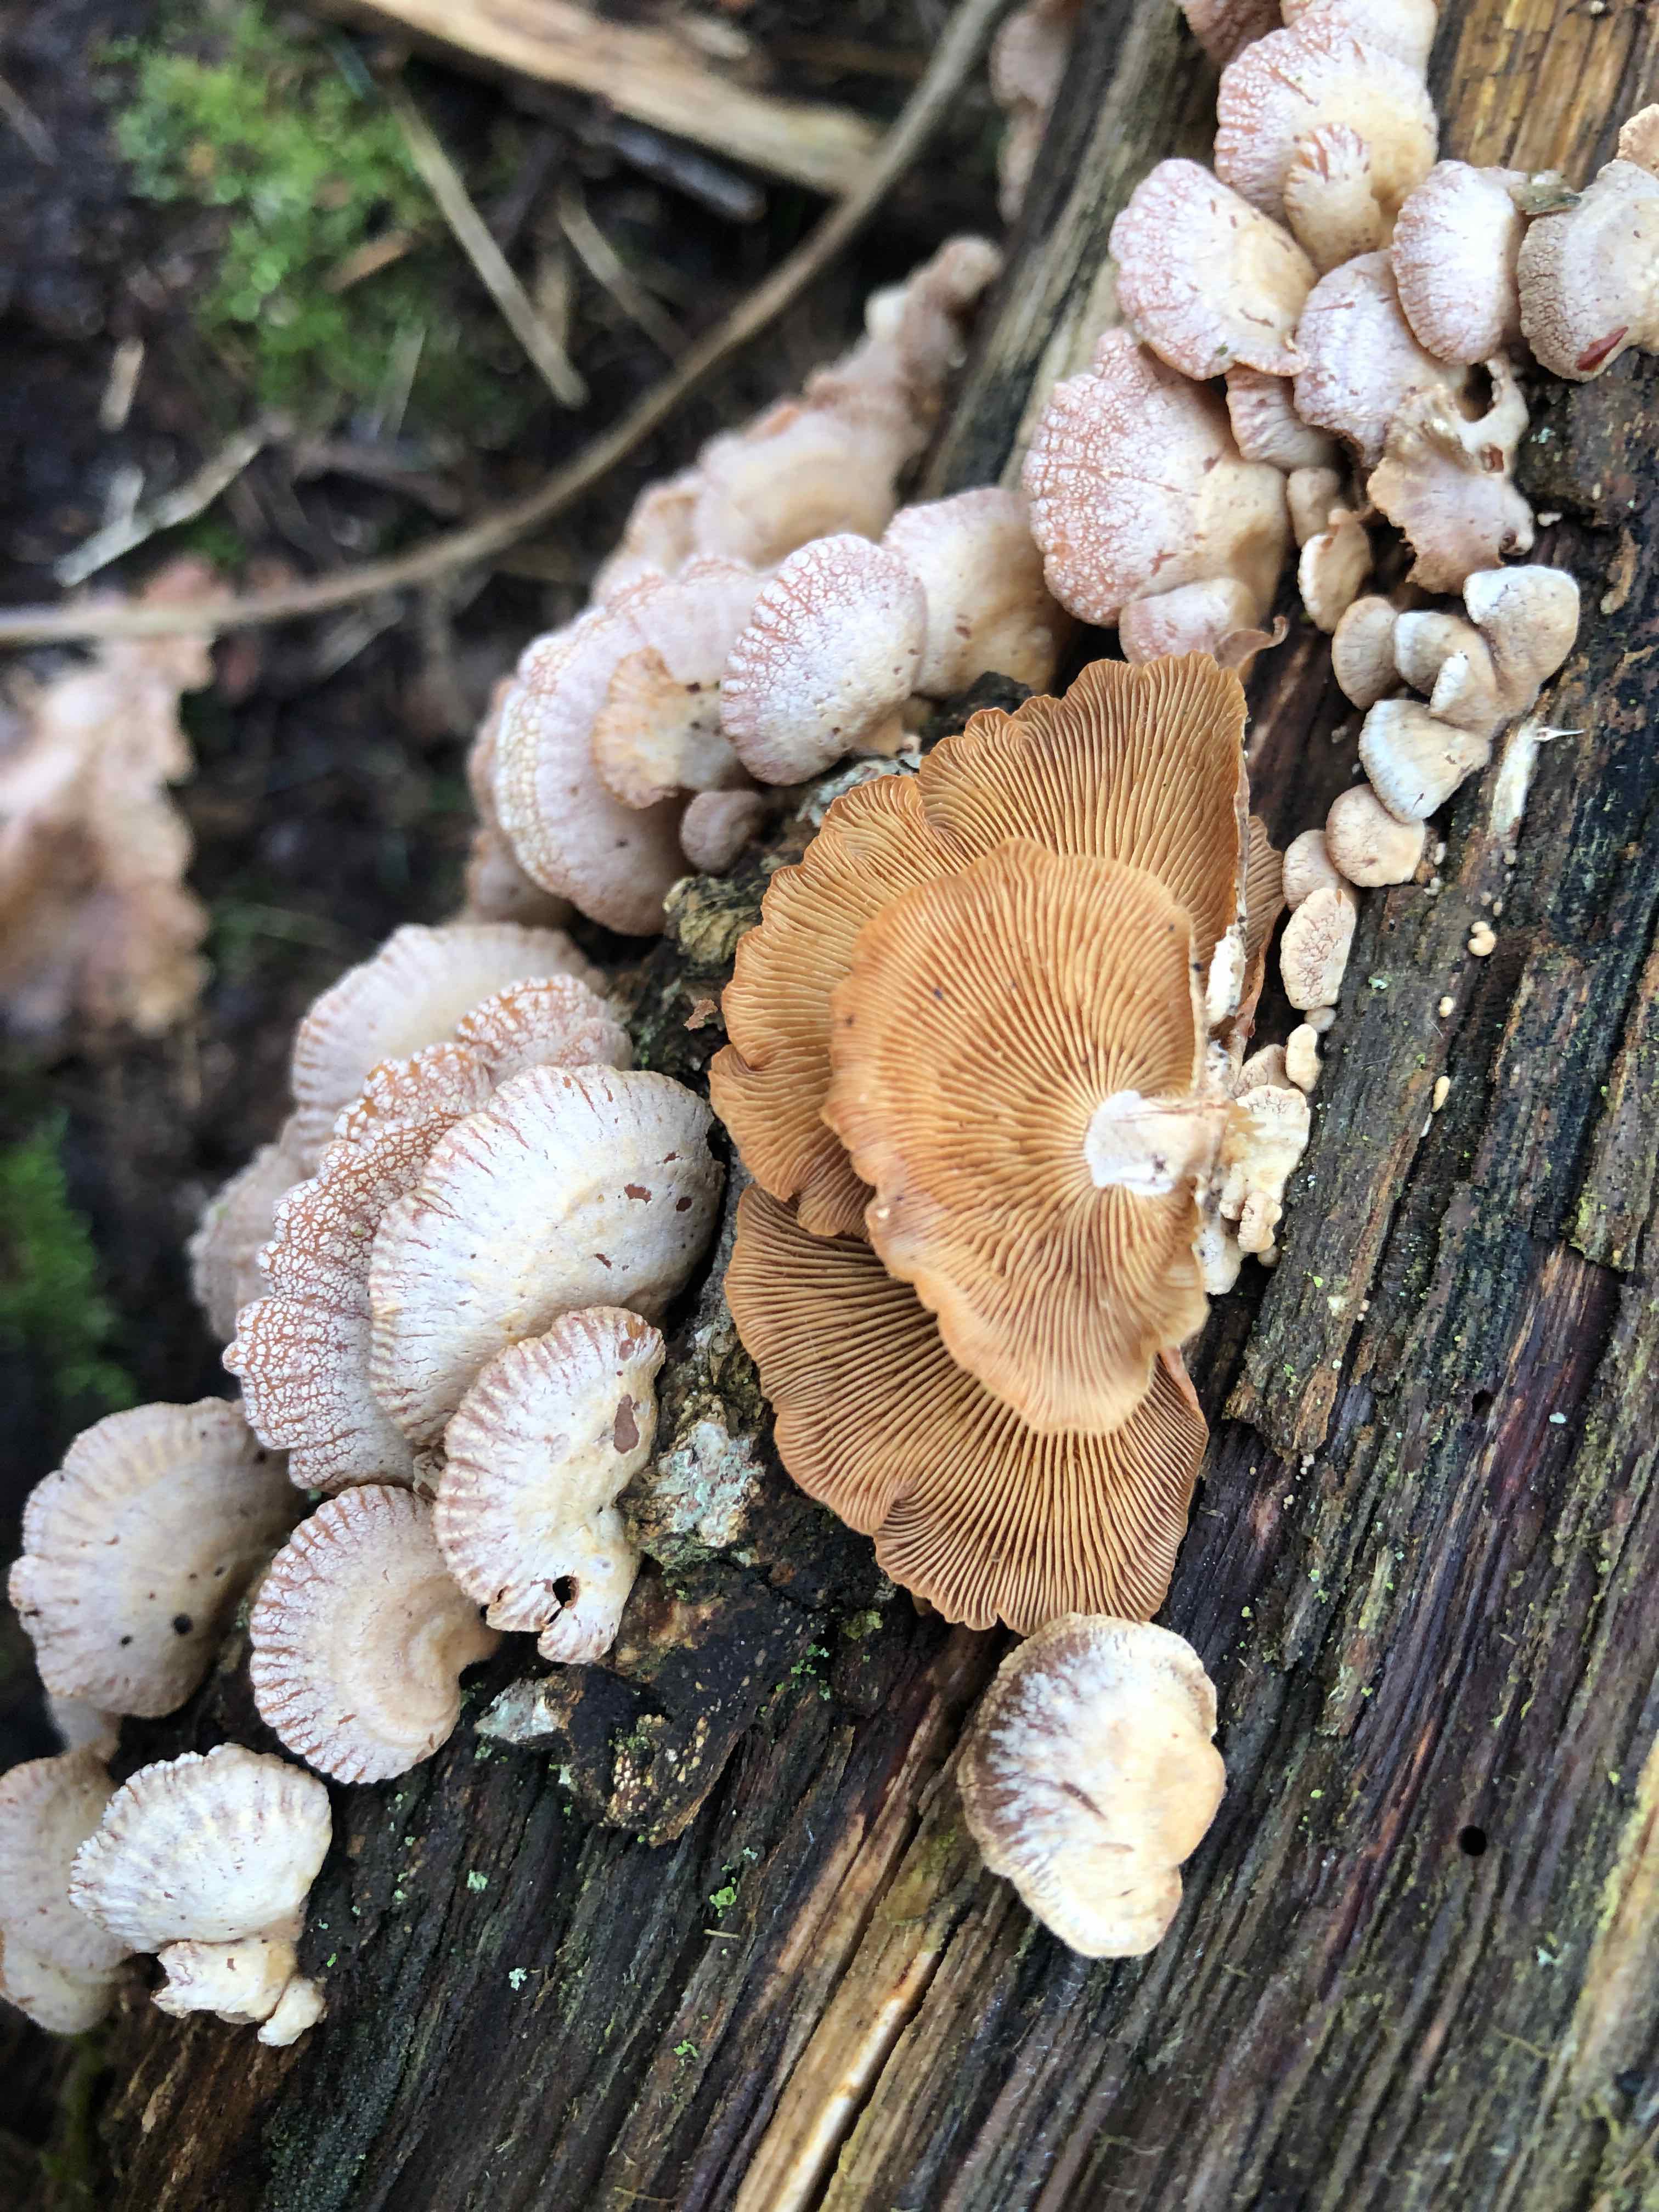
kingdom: Fungi
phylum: Basidiomycota
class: Agaricomycetes
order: Agaricales
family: Mycenaceae
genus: Panellus
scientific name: Panellus stipticus
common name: kliddet epaulethat
